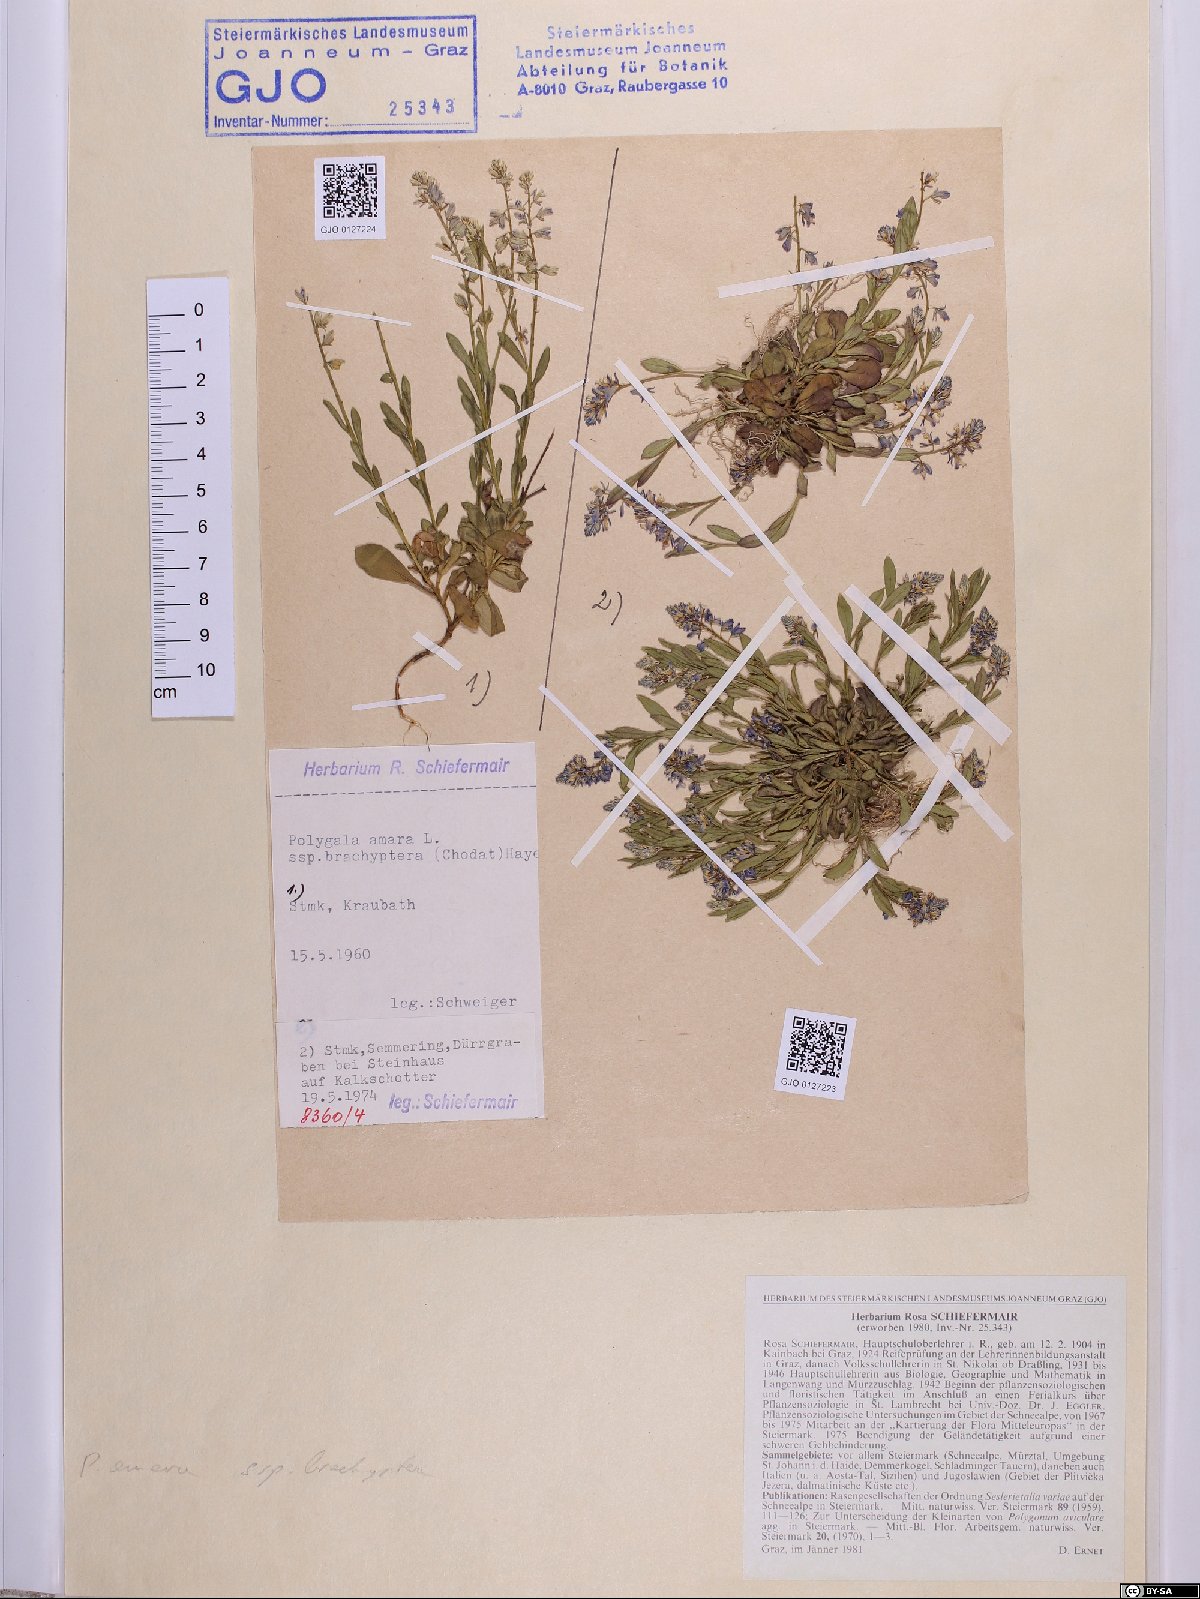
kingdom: Plantae
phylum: Tracheophyta
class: Magnoliopsida
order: Fabales
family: Polygalaceae
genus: Polygala
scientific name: Polygala amara
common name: Milkwort
